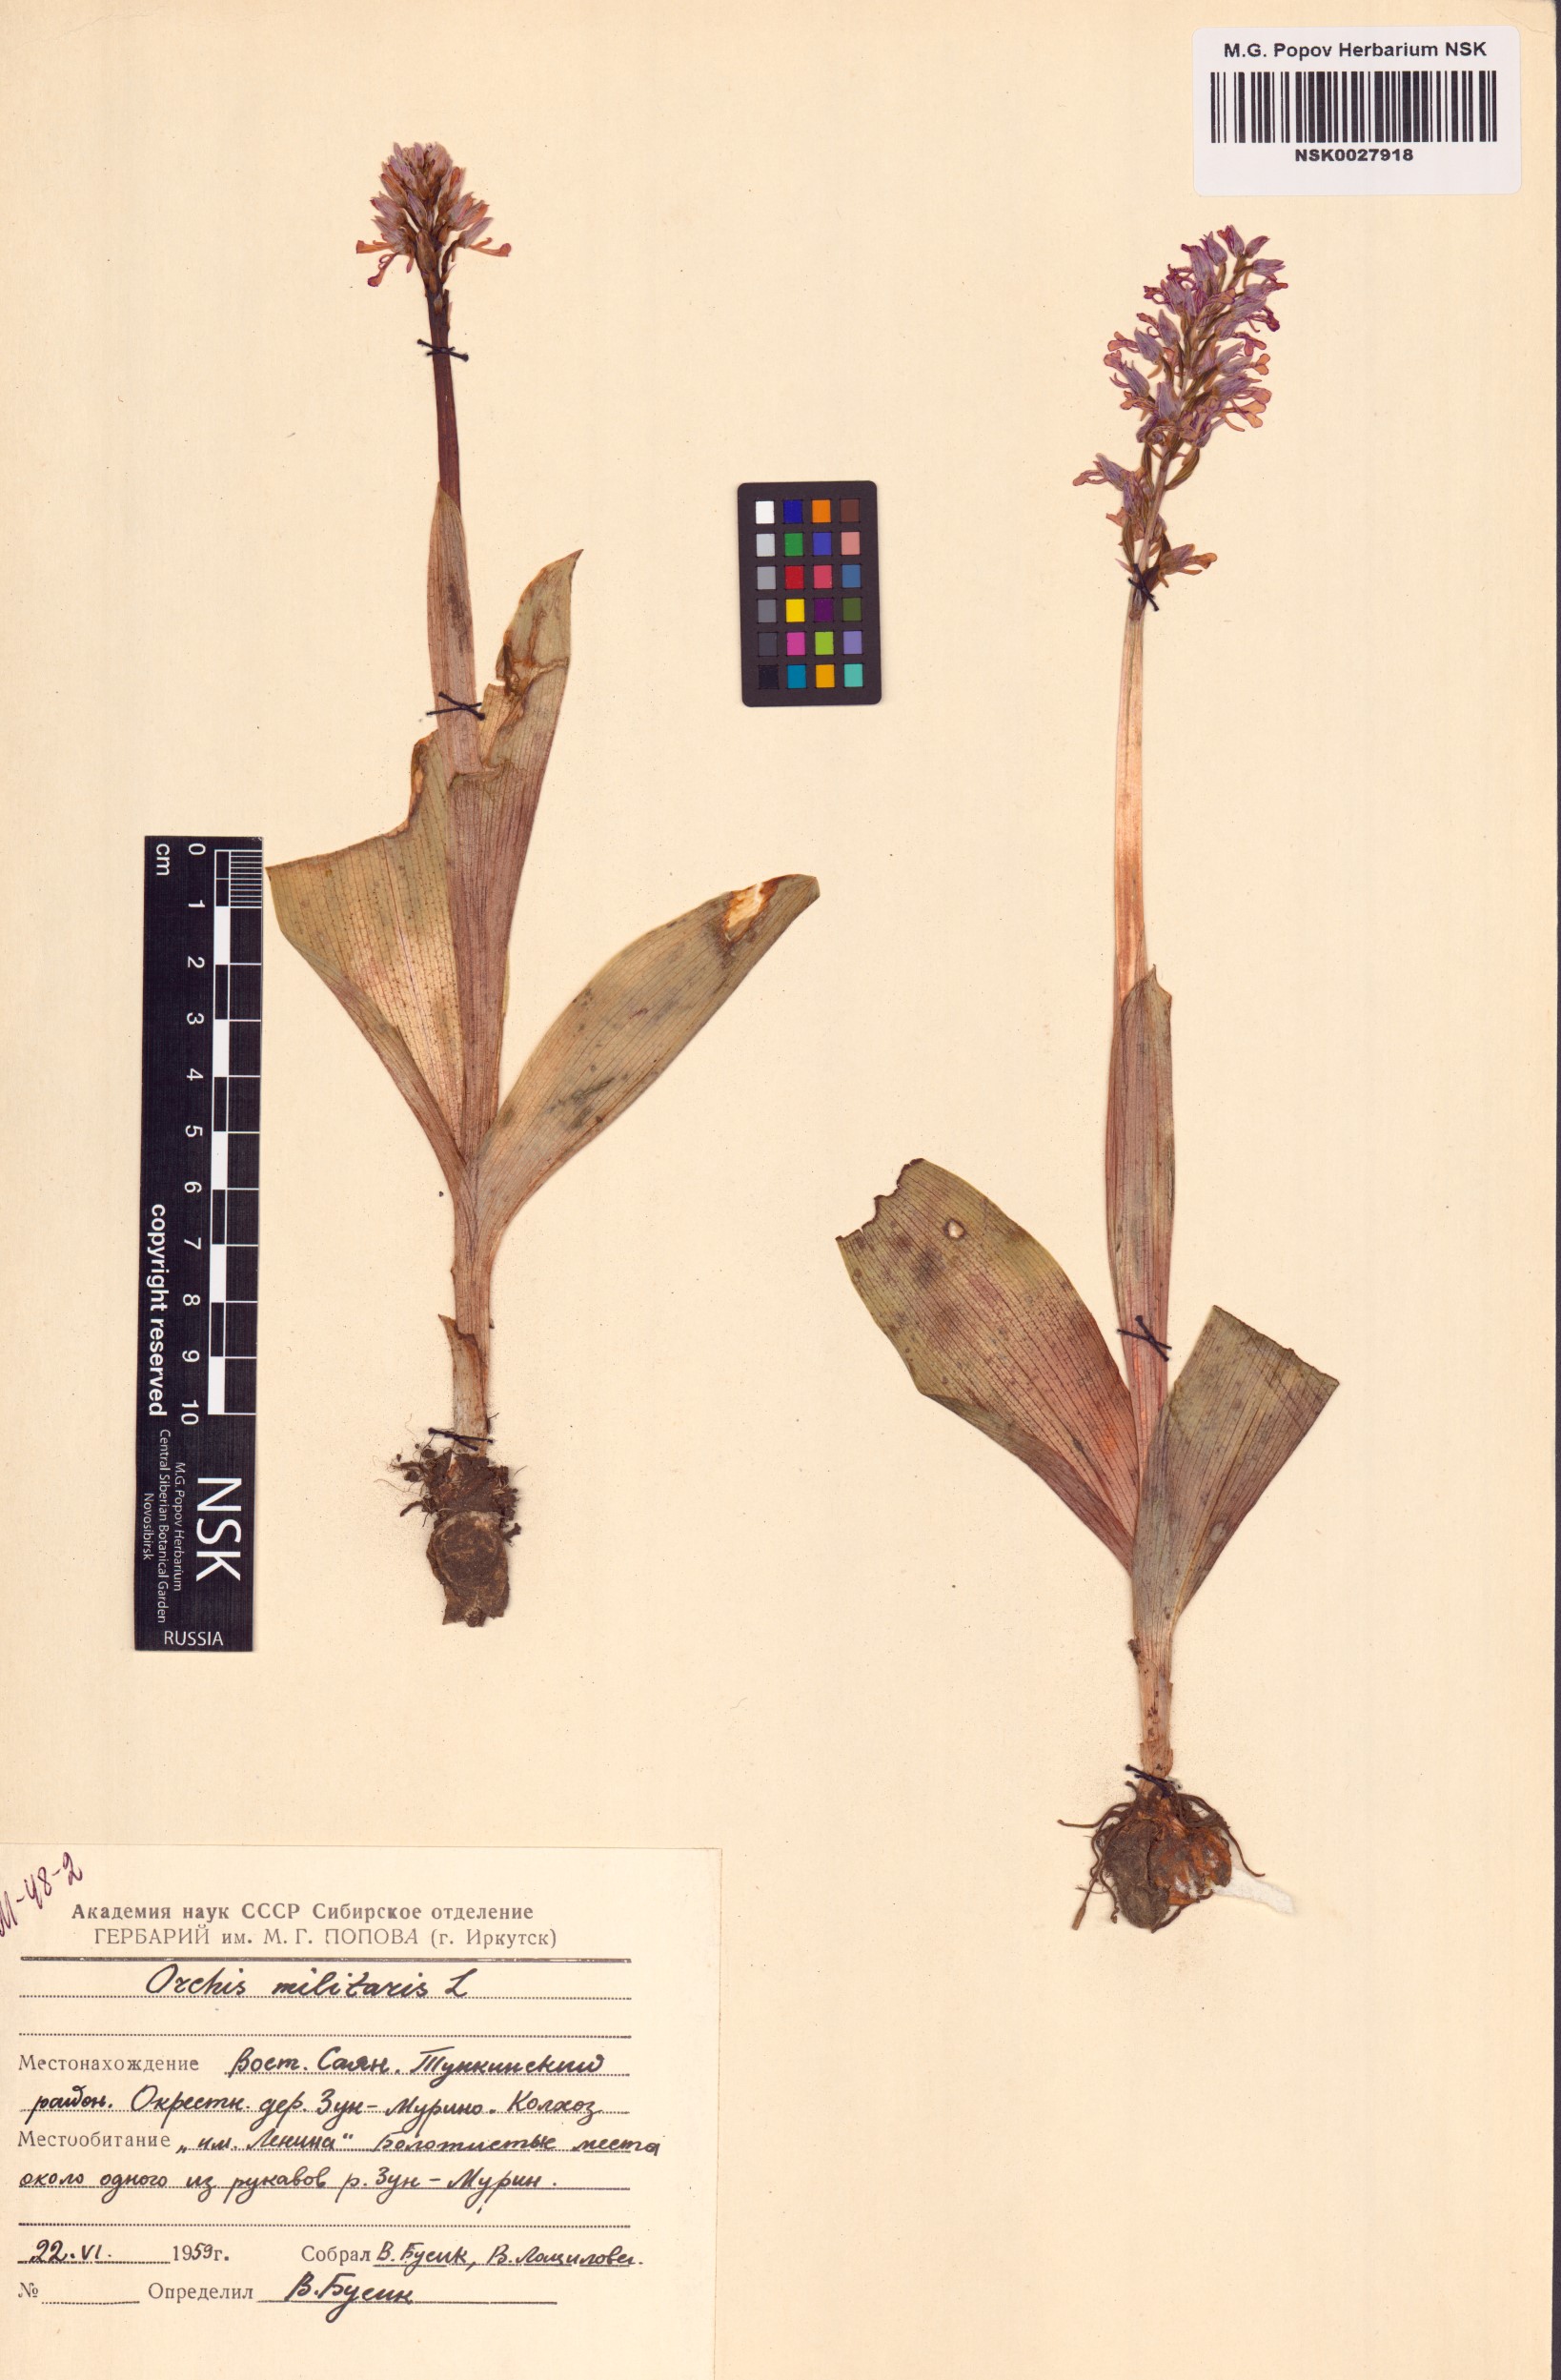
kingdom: Plantae
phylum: Tracheophyta
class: Liliopsida
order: Asparagales
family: Orchidaceae
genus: Orchis
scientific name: Orchis militaris
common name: Military orchid
